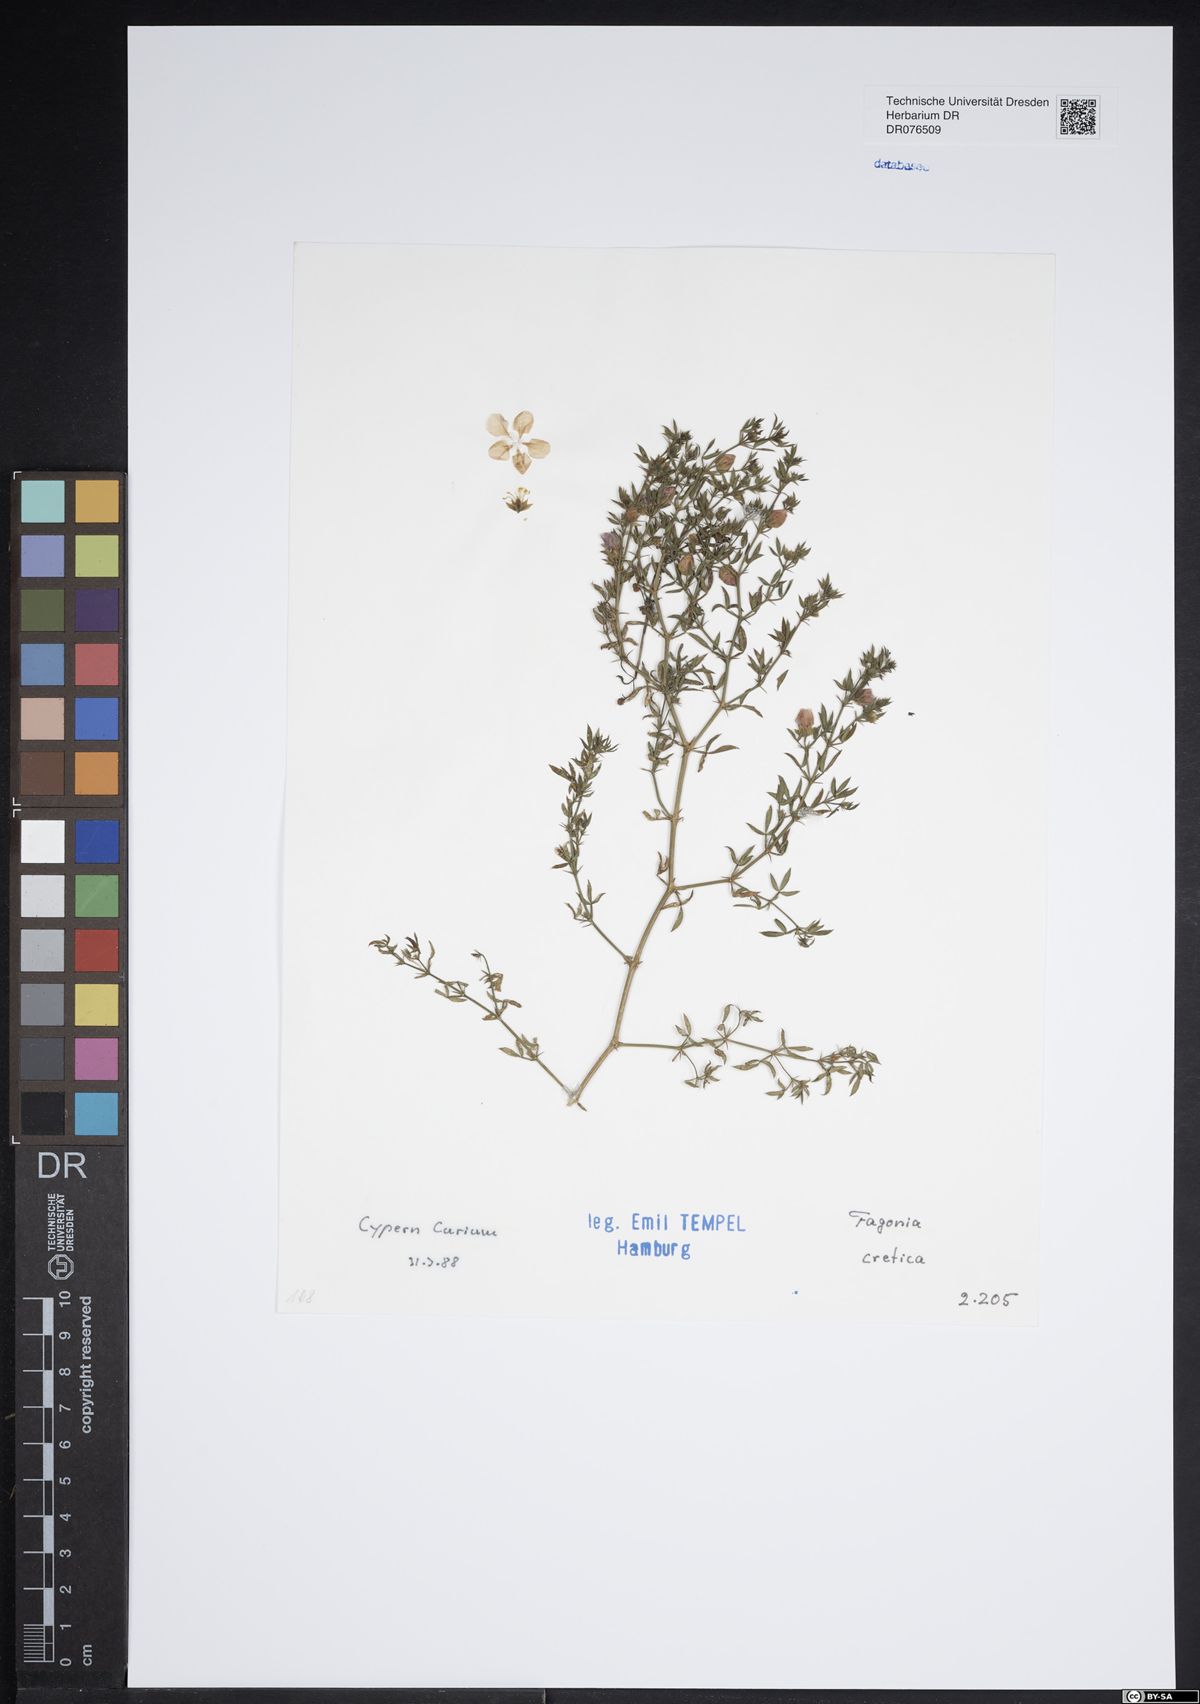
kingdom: Plantae
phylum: Tracheophyta
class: Magnoliopsida
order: Zygophyllales
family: Zygophyllaceae
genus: Fagonia
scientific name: Fagonia cretica
